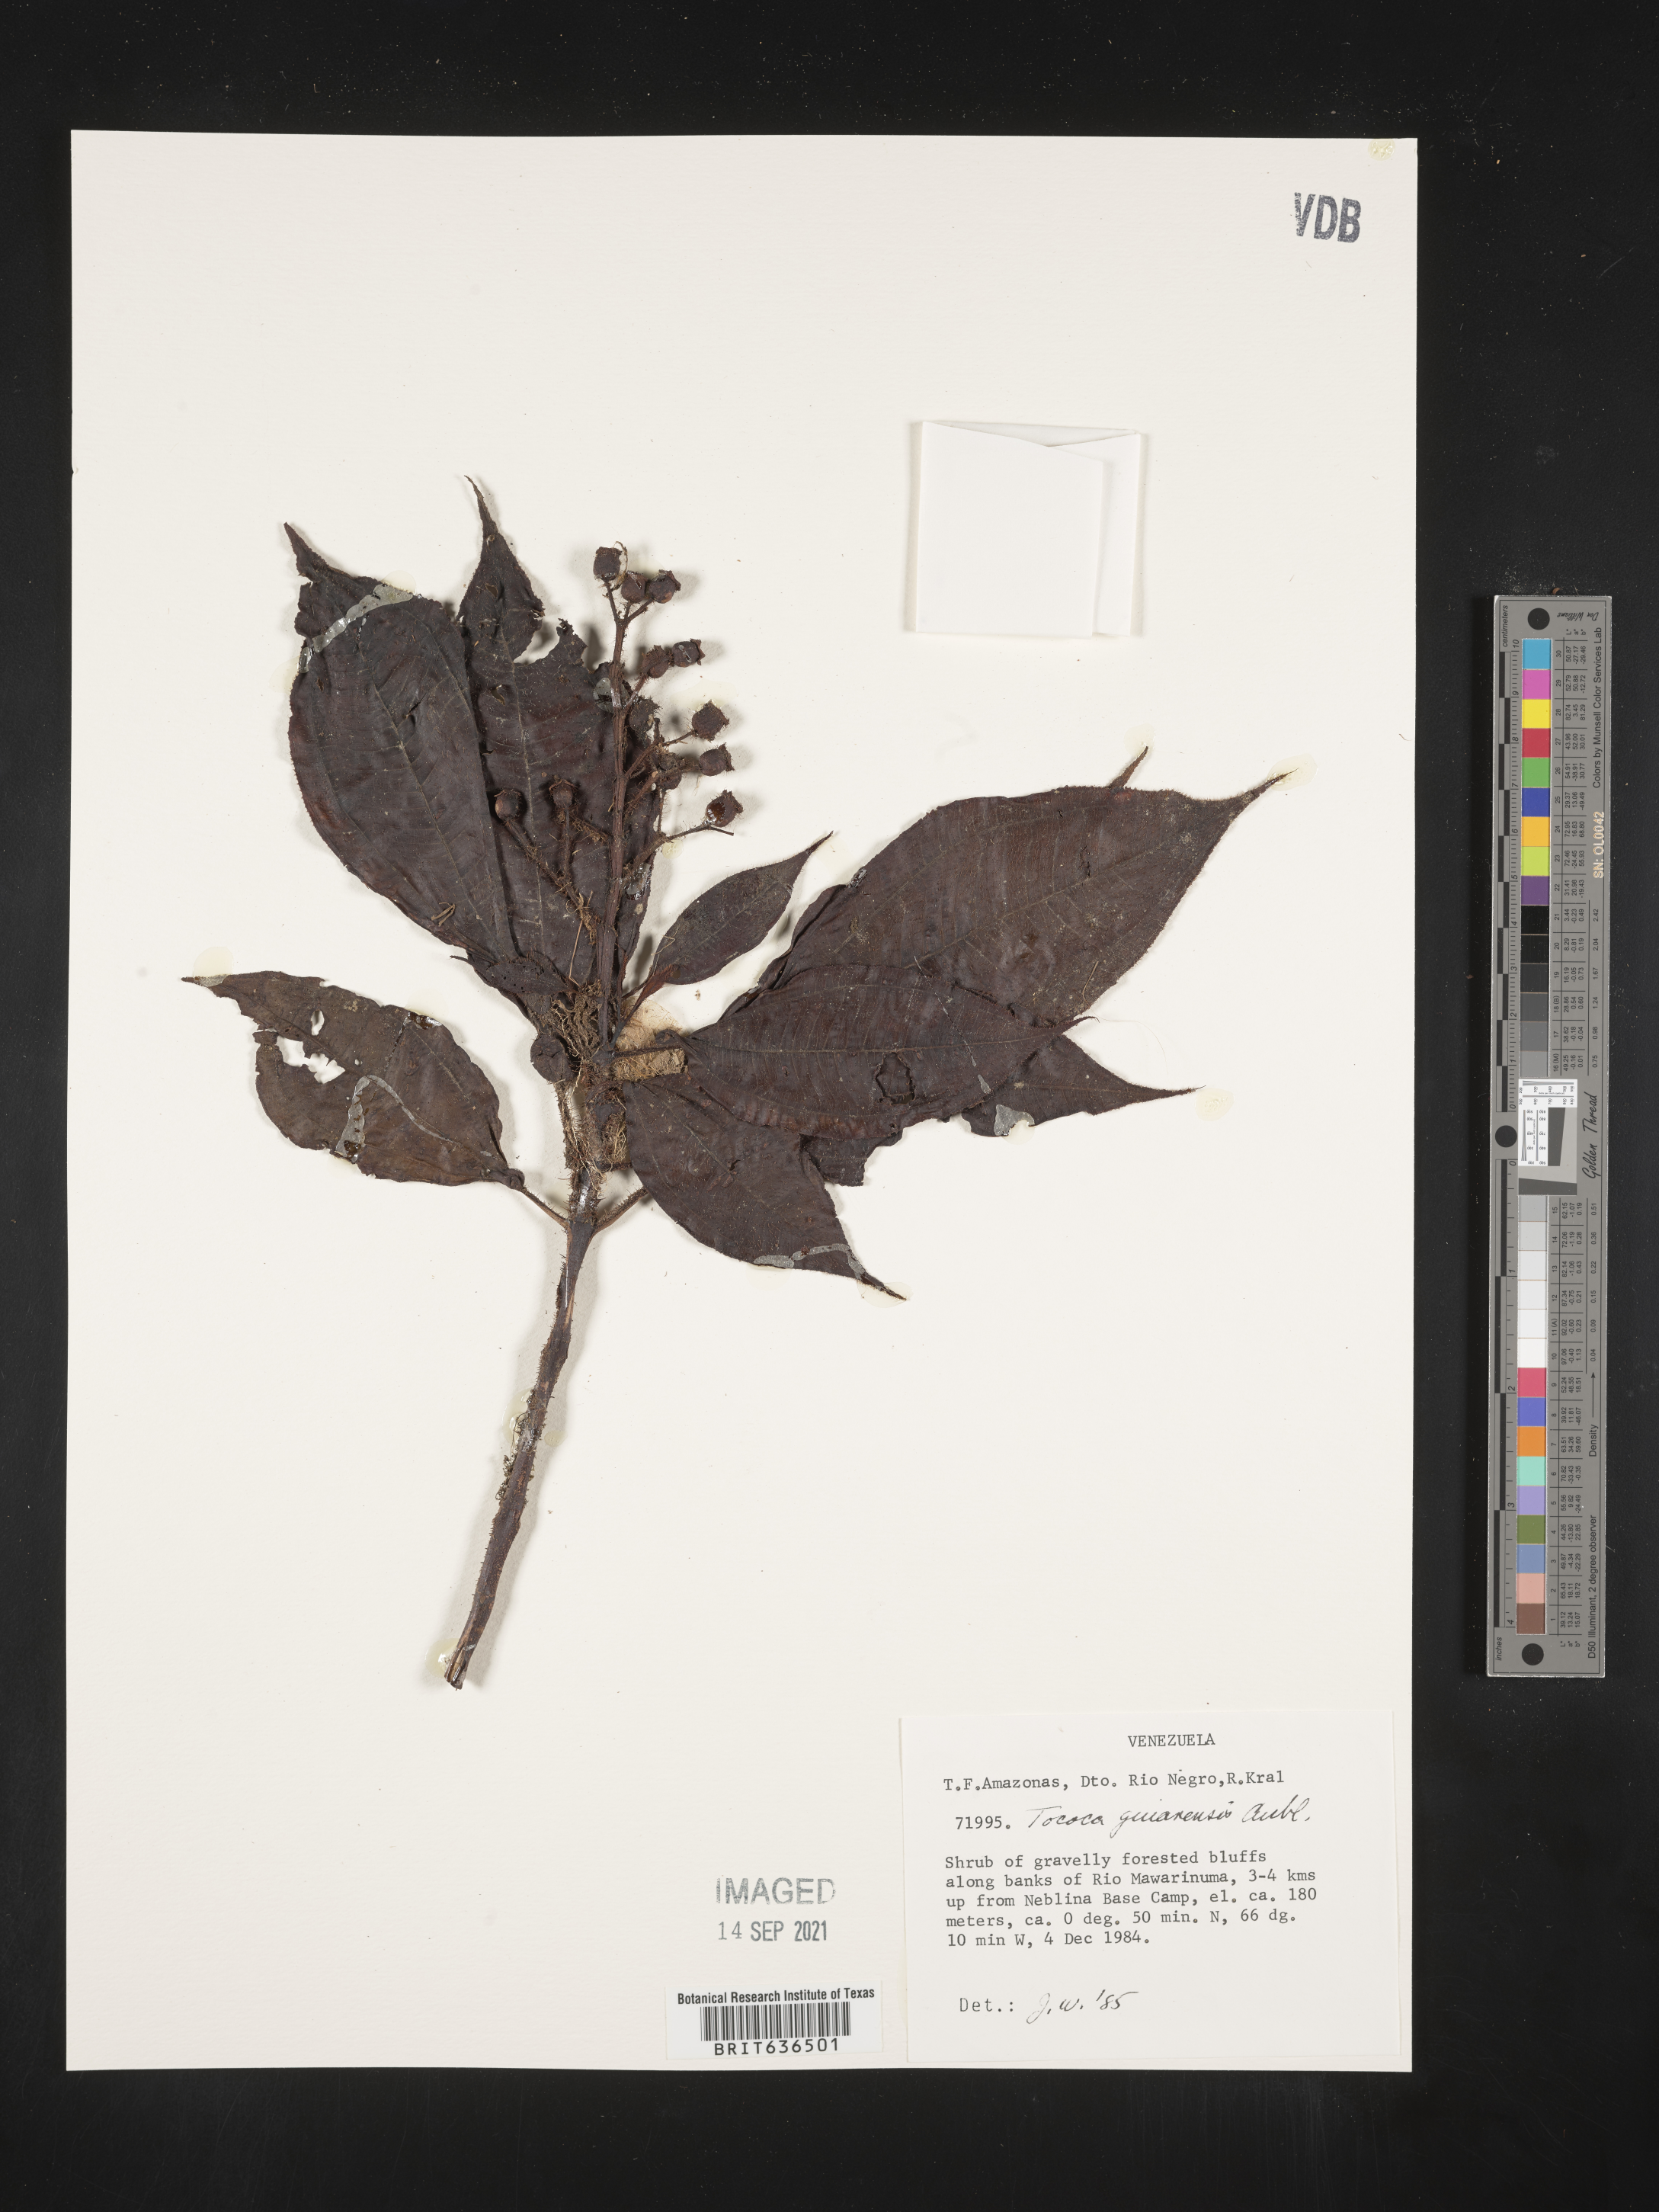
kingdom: Plantae
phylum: Tracheophyta
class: Magnoliopsida
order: Myrtales
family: Melastomataceae
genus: Tibouchina
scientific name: Tibouchina
